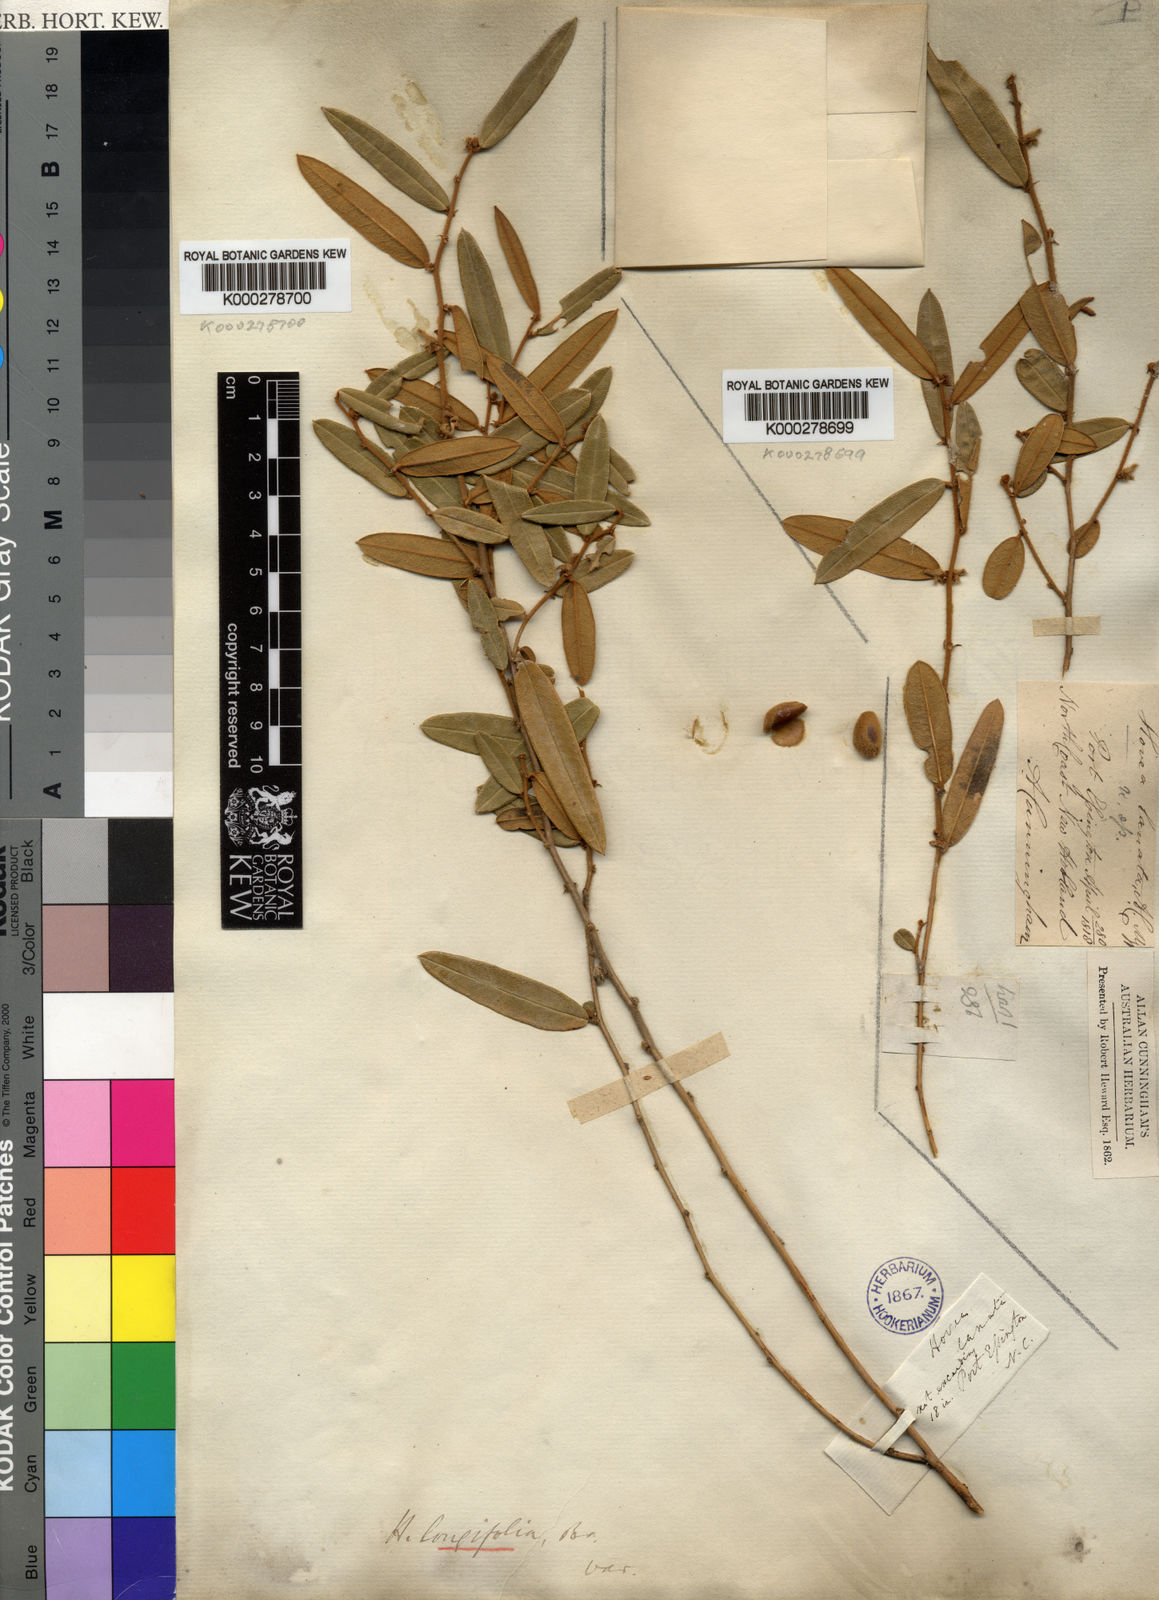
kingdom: Plantae
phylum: Tracheophyta
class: Magnoliopsida
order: Fabales
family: Fabaceae
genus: Hovea
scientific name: Hovea longifolia
